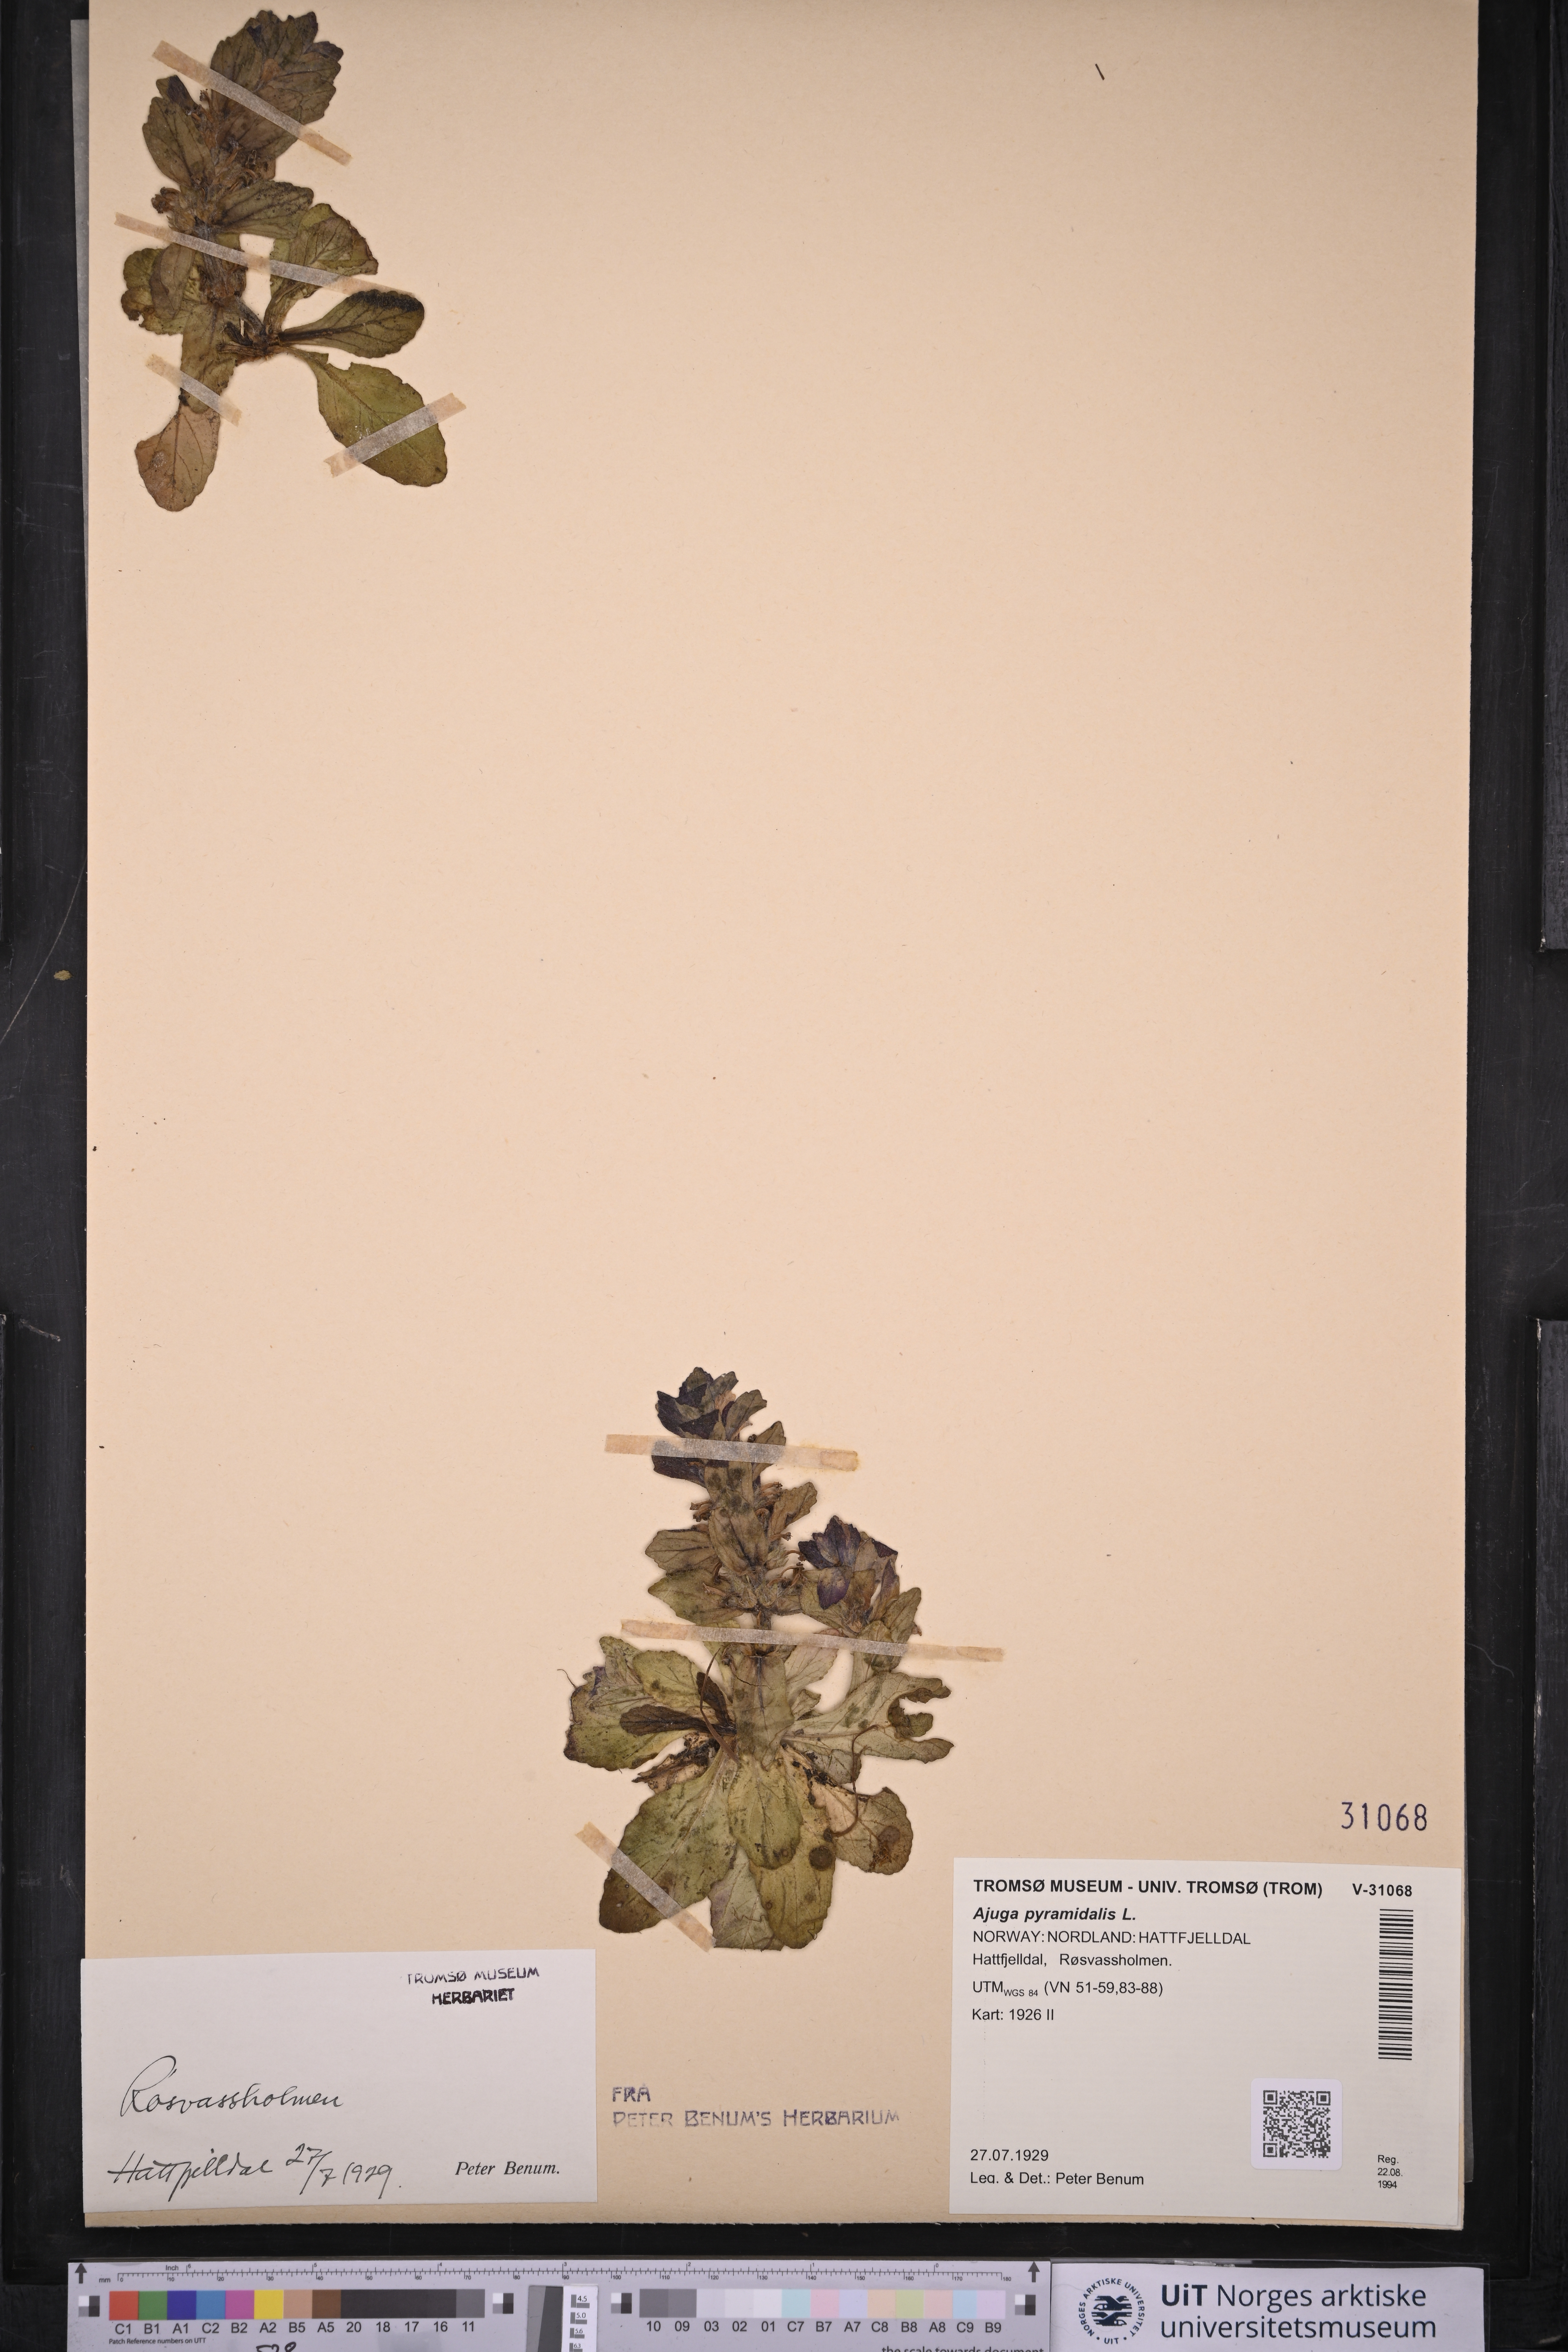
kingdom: Plantae
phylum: Tracheophyta
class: Magnoliopsida
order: Lamiales
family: Lamiaceae
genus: Ajuga
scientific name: Ajuga pyramidalis
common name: Pyramid bugle
